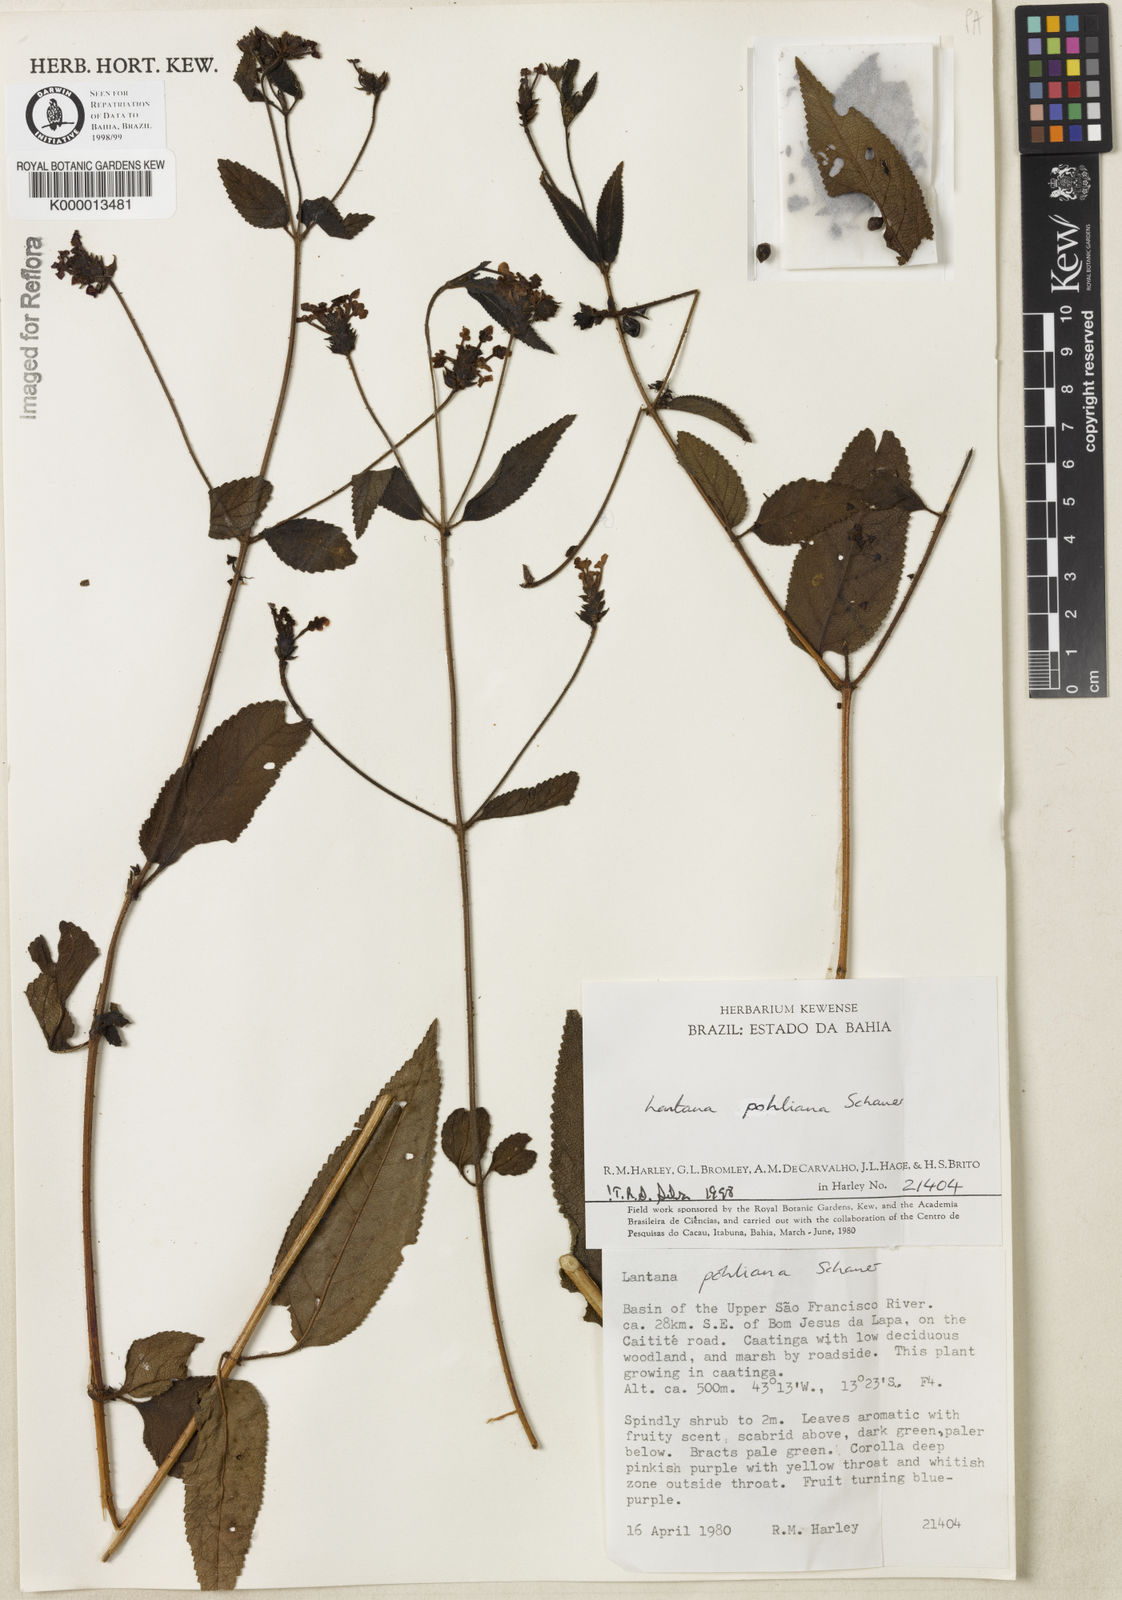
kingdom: Plantae
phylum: Tracheophyta
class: Magnoliopsida
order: Lamiales
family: Verbenaceae
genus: Lantana
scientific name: Lantana pohliana
